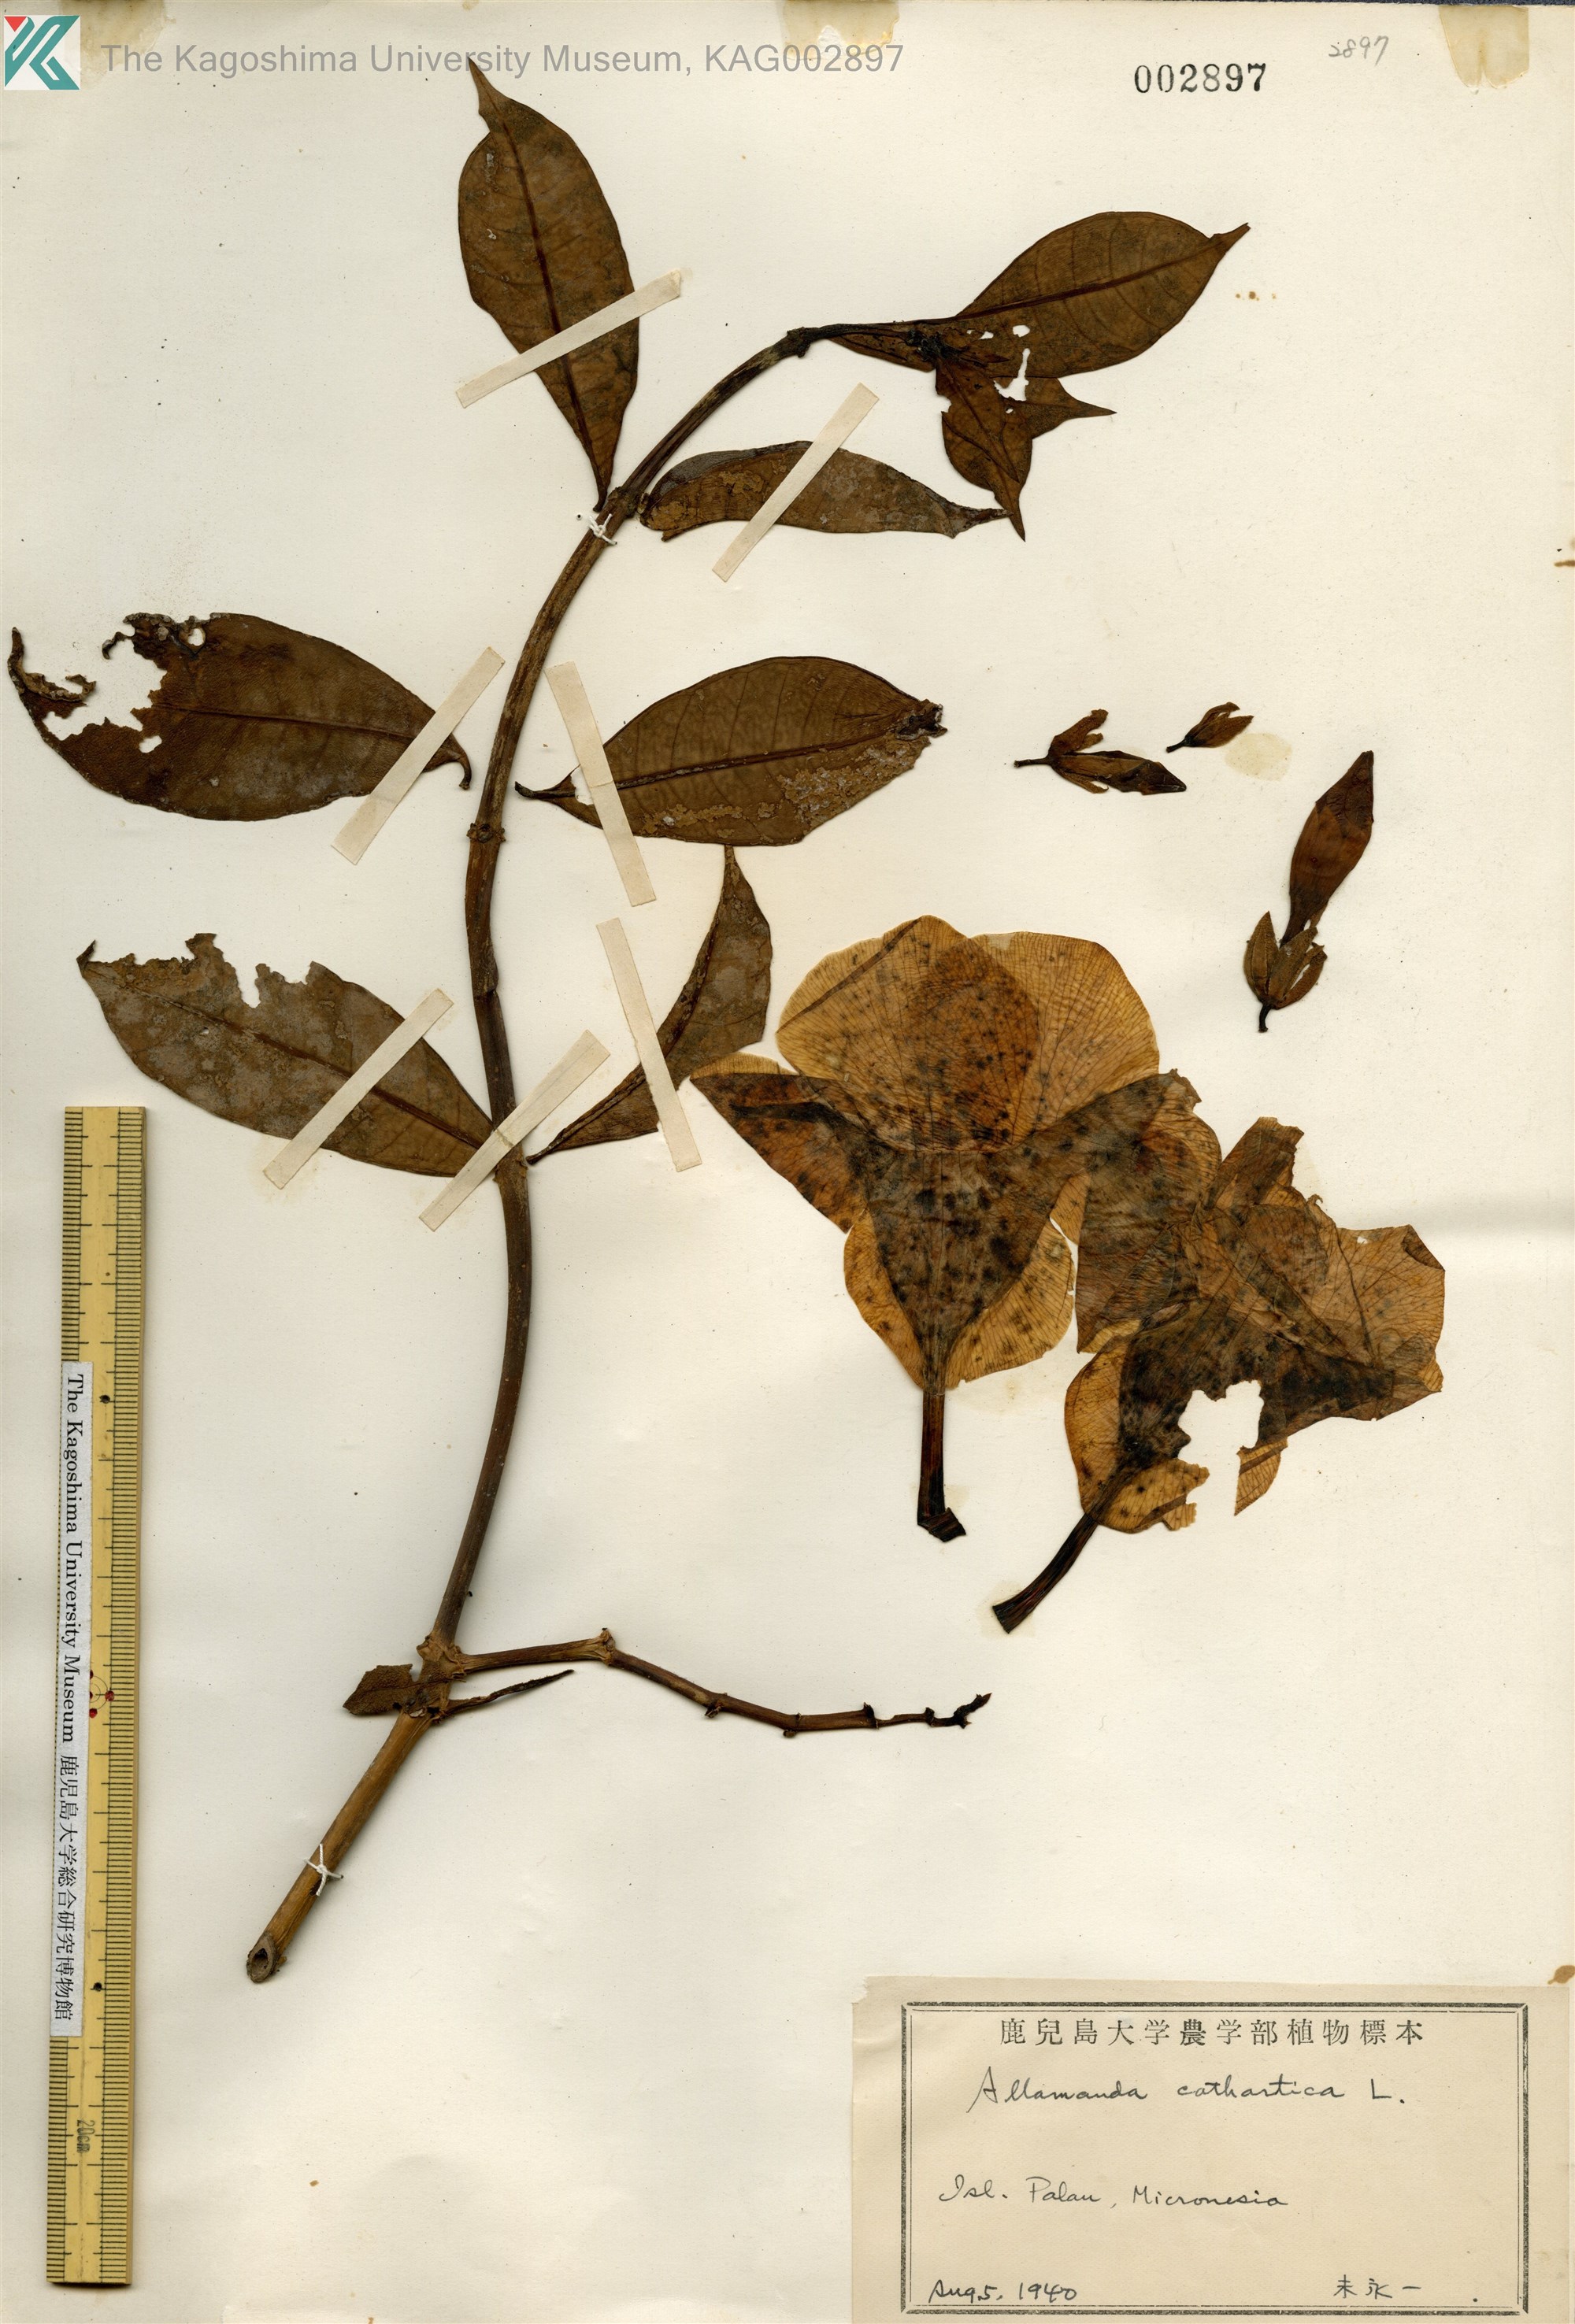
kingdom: Plantae
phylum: Tracheophyta
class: Magnoliopsida
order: Gentianales
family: Apocynaceae
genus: Allamanda
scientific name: Allamanda cathartica
